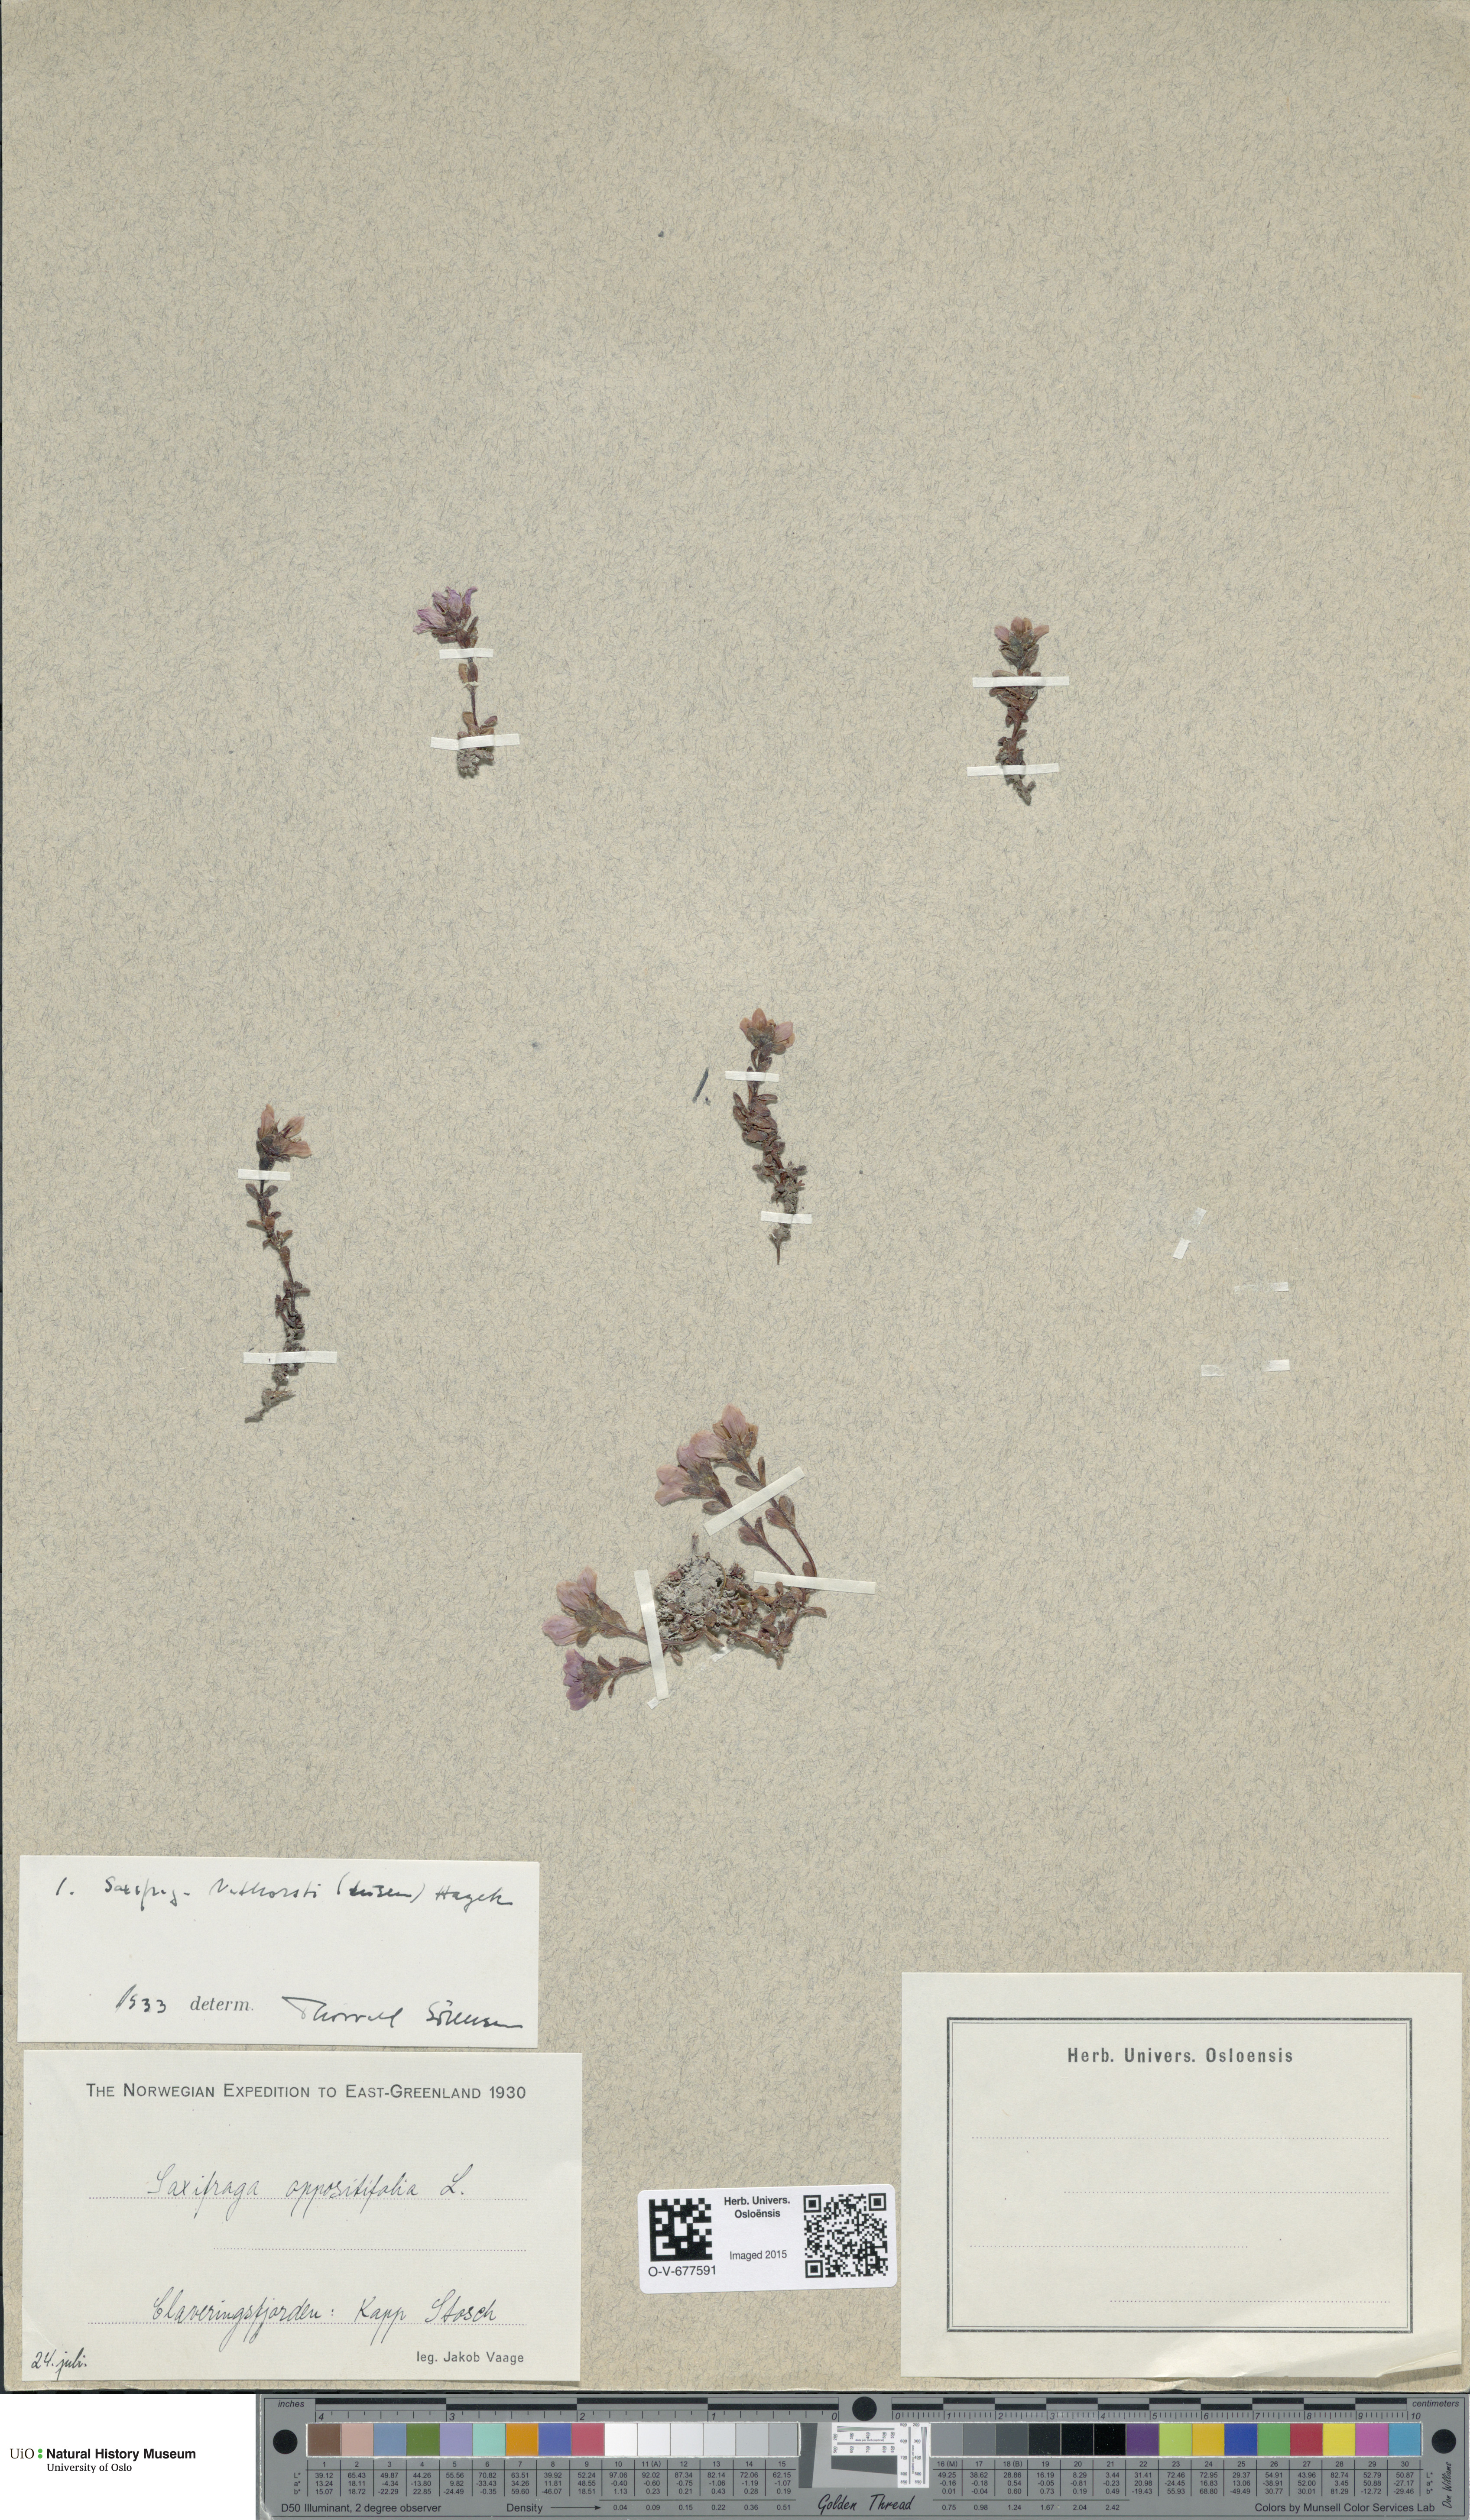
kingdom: Plantae
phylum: Tracheophyta
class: Magnoliopsida
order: Saxifragales
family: Saxifragaceae
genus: Saxifraga
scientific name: Saxifraga nathorstii
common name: East greenland saxifrage
